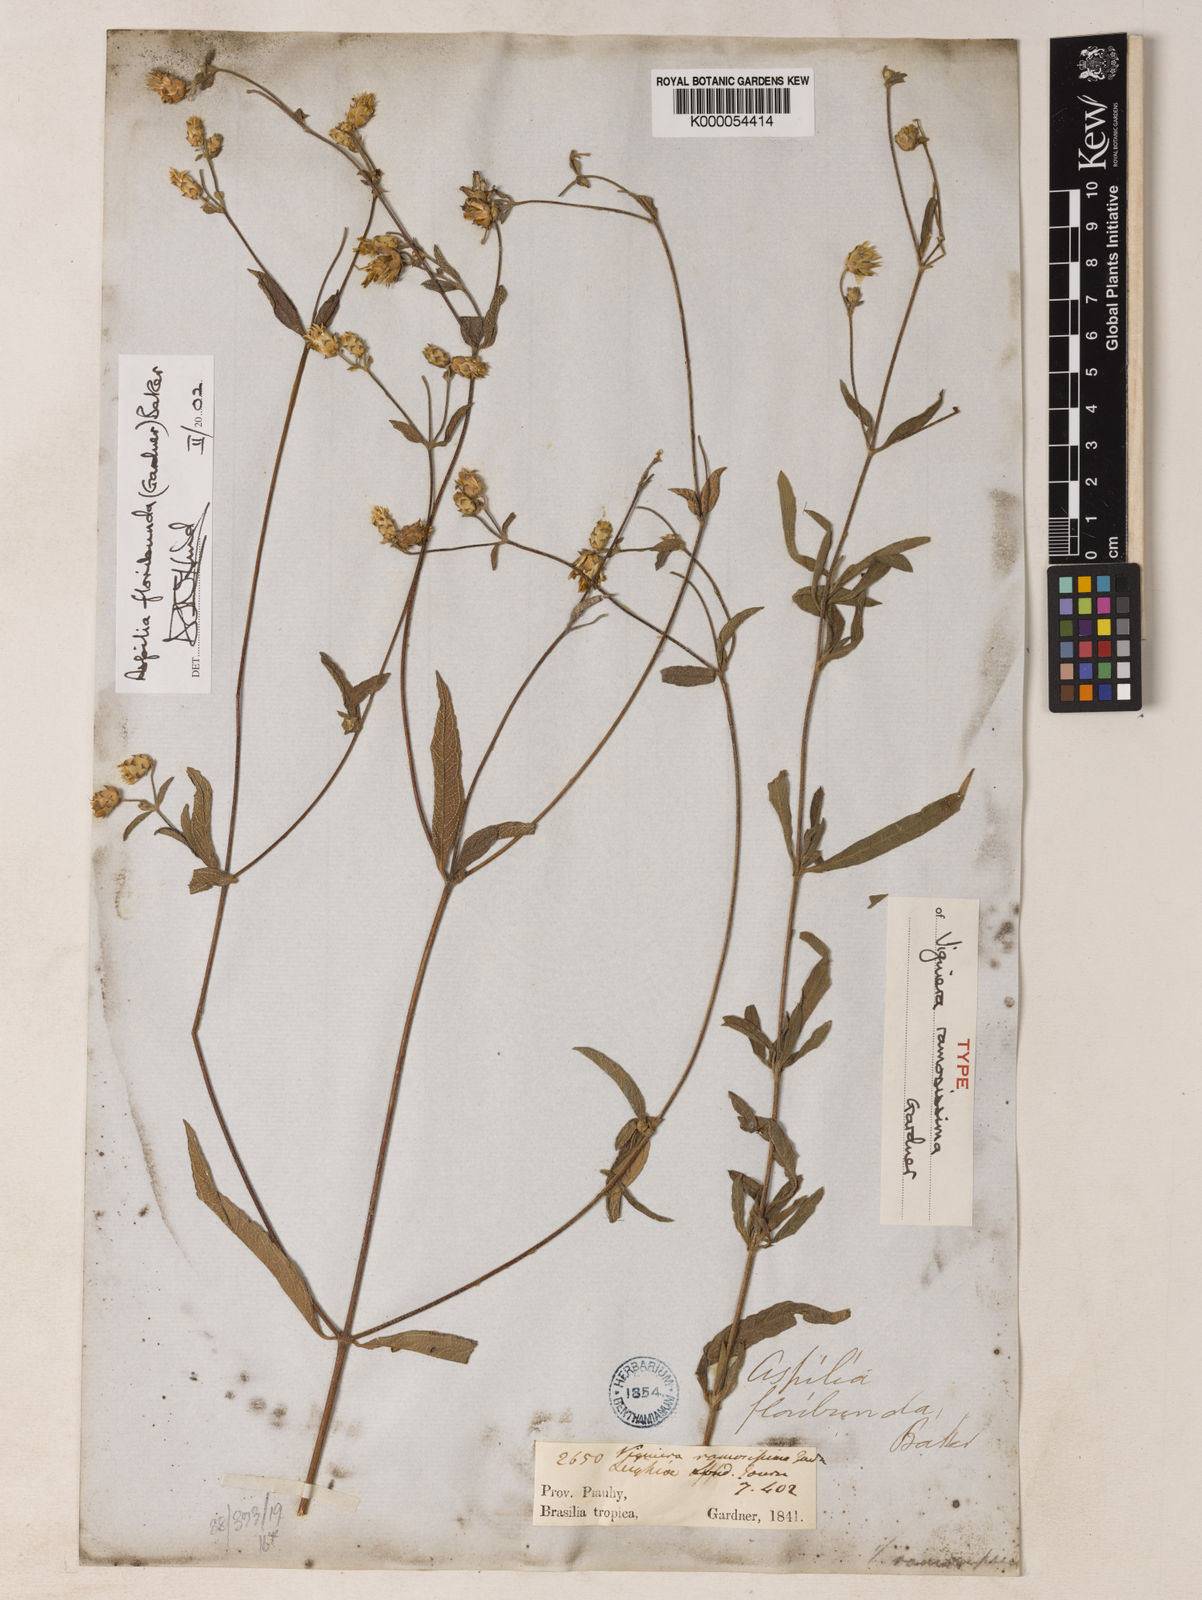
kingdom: Plantae
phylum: Tracheophyta
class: Magnoliopsida
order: Asterales
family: Asteraceae
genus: Wedelia
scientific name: Wedelia floribunda
